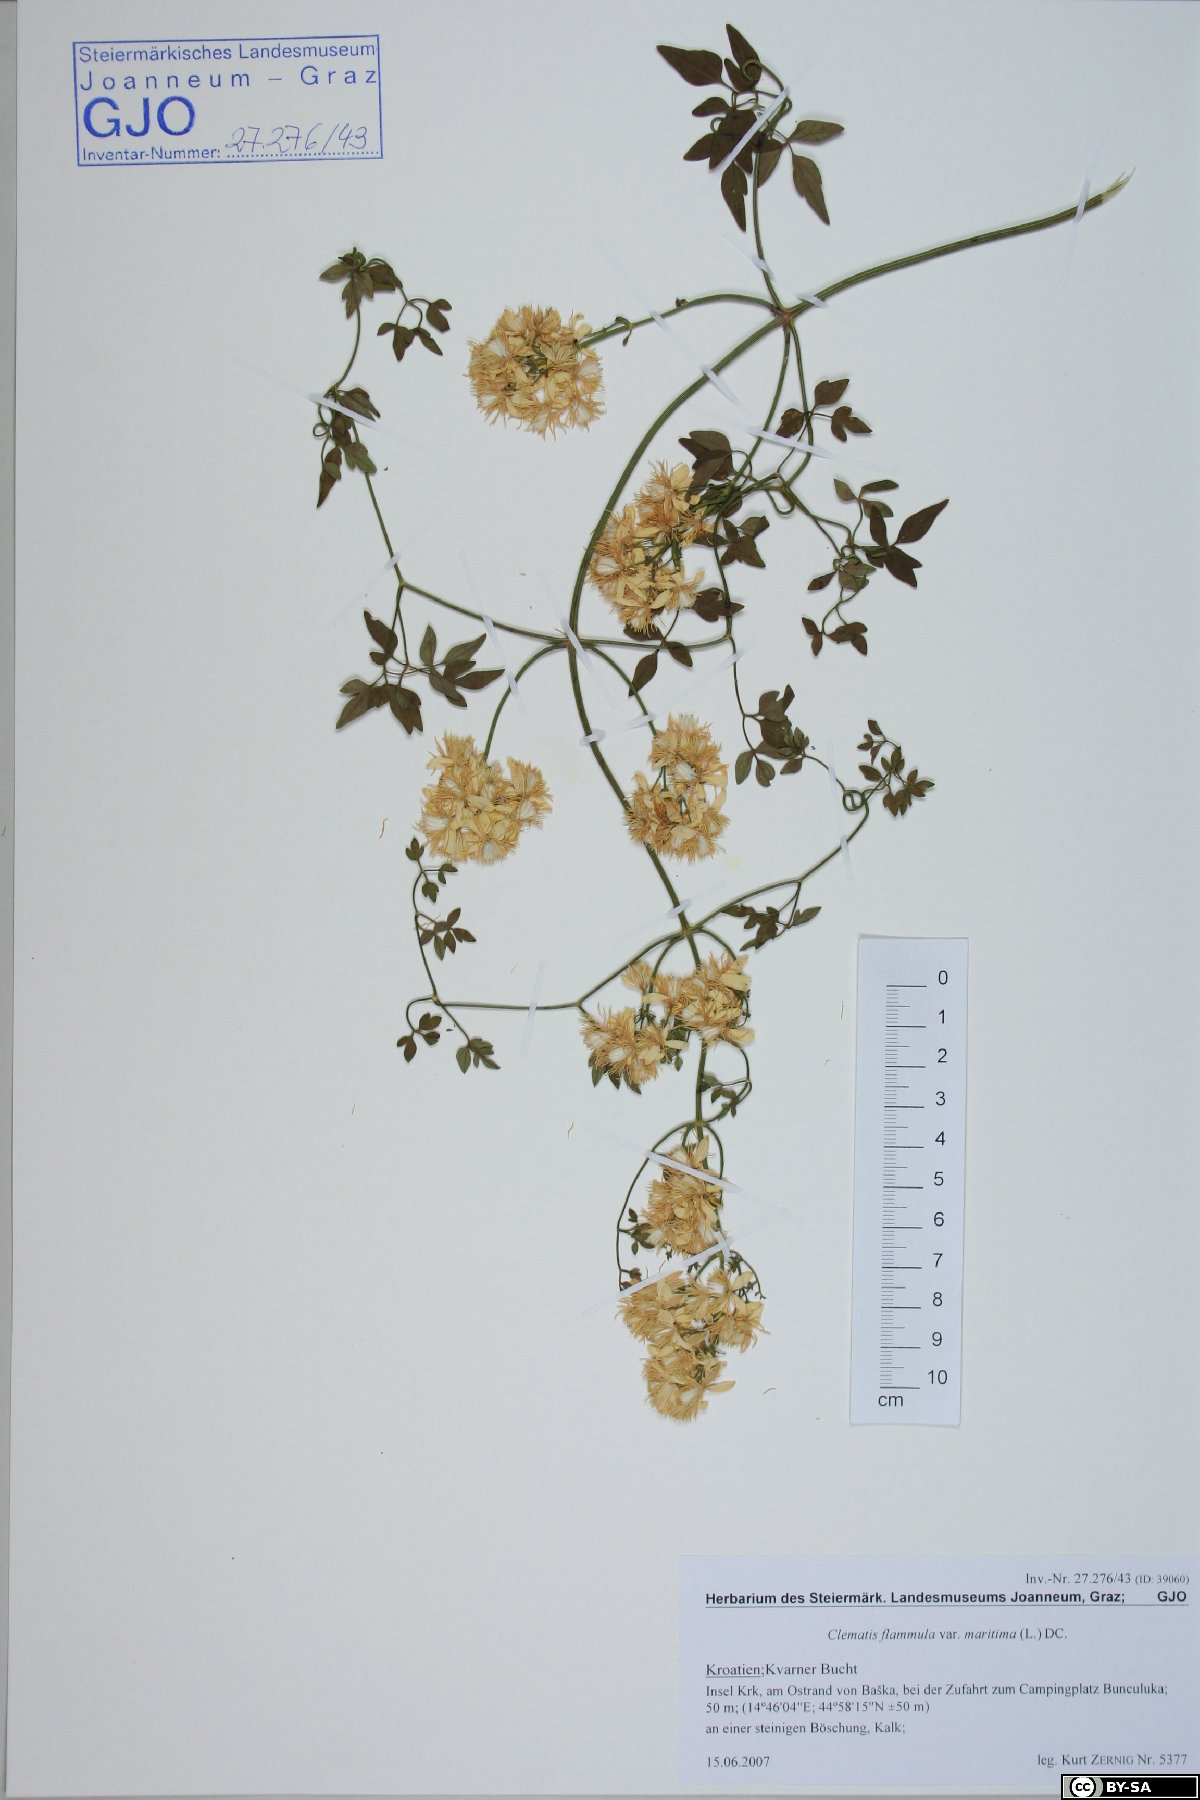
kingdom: Plantae
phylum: Tracheophyta
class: Magnoliopsida
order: Ranunculales
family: Ranunculaceae
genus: Clematis
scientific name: Clematis flammula
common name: Virgin's-bower
